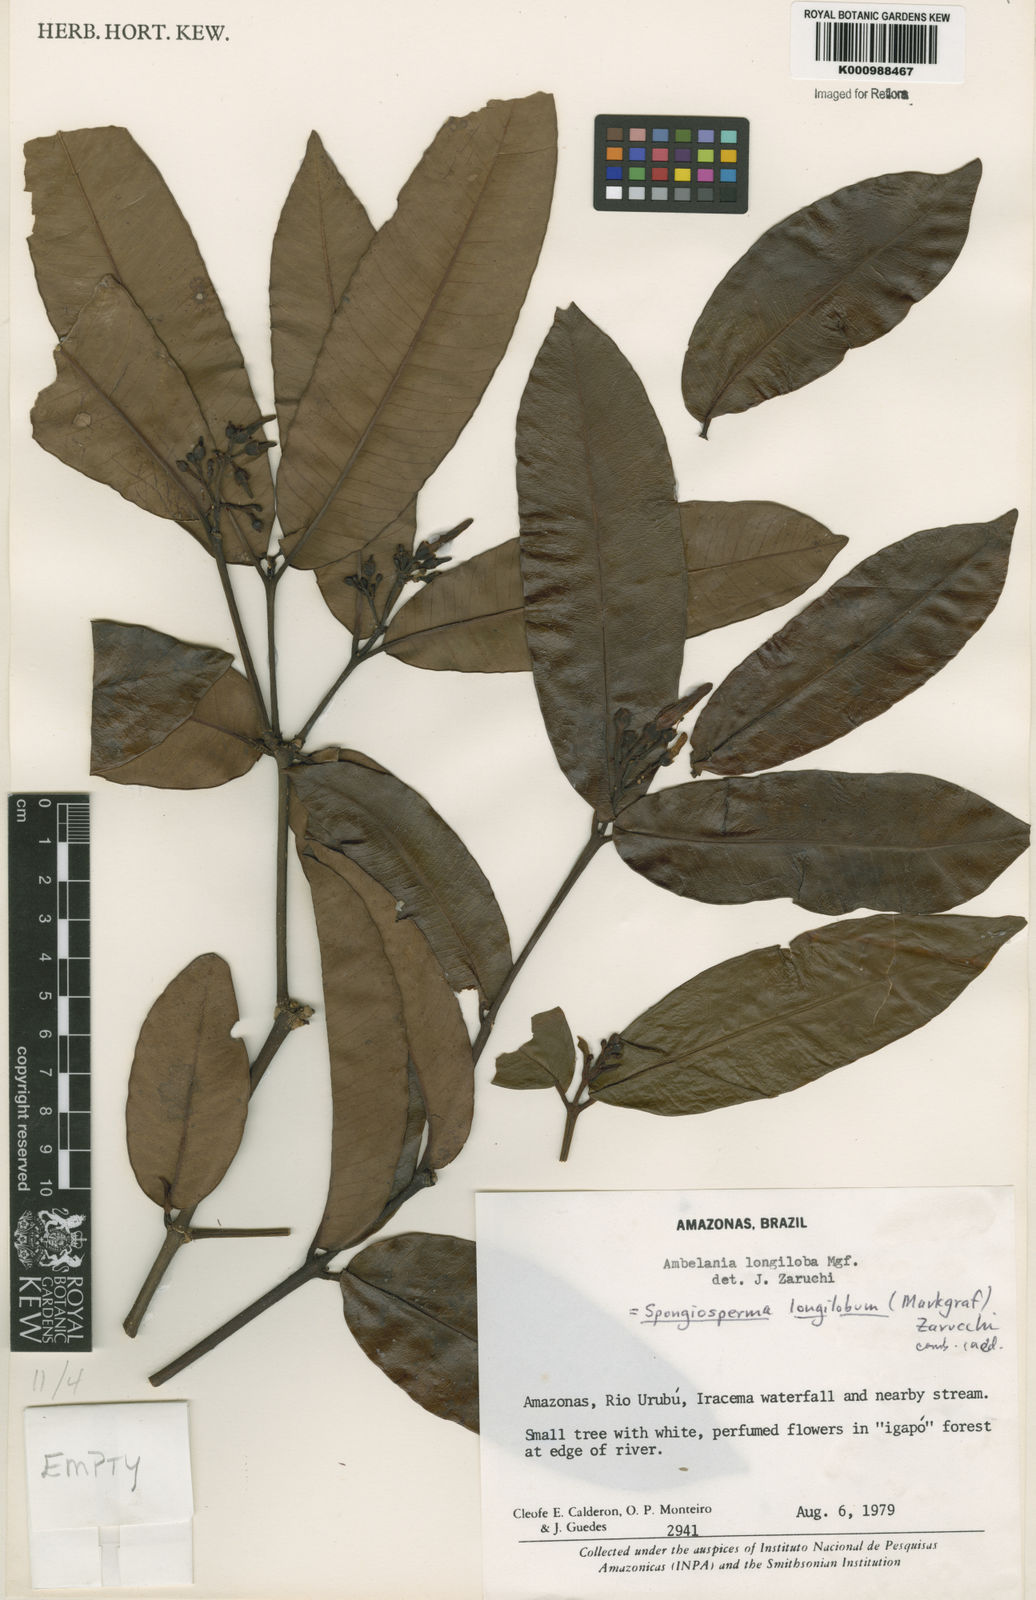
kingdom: Plantae
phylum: Tracheophyta
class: Magnoliopsida
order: Gentianales
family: Apocynaceae
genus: Aspidosperma
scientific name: Aspidosperma
